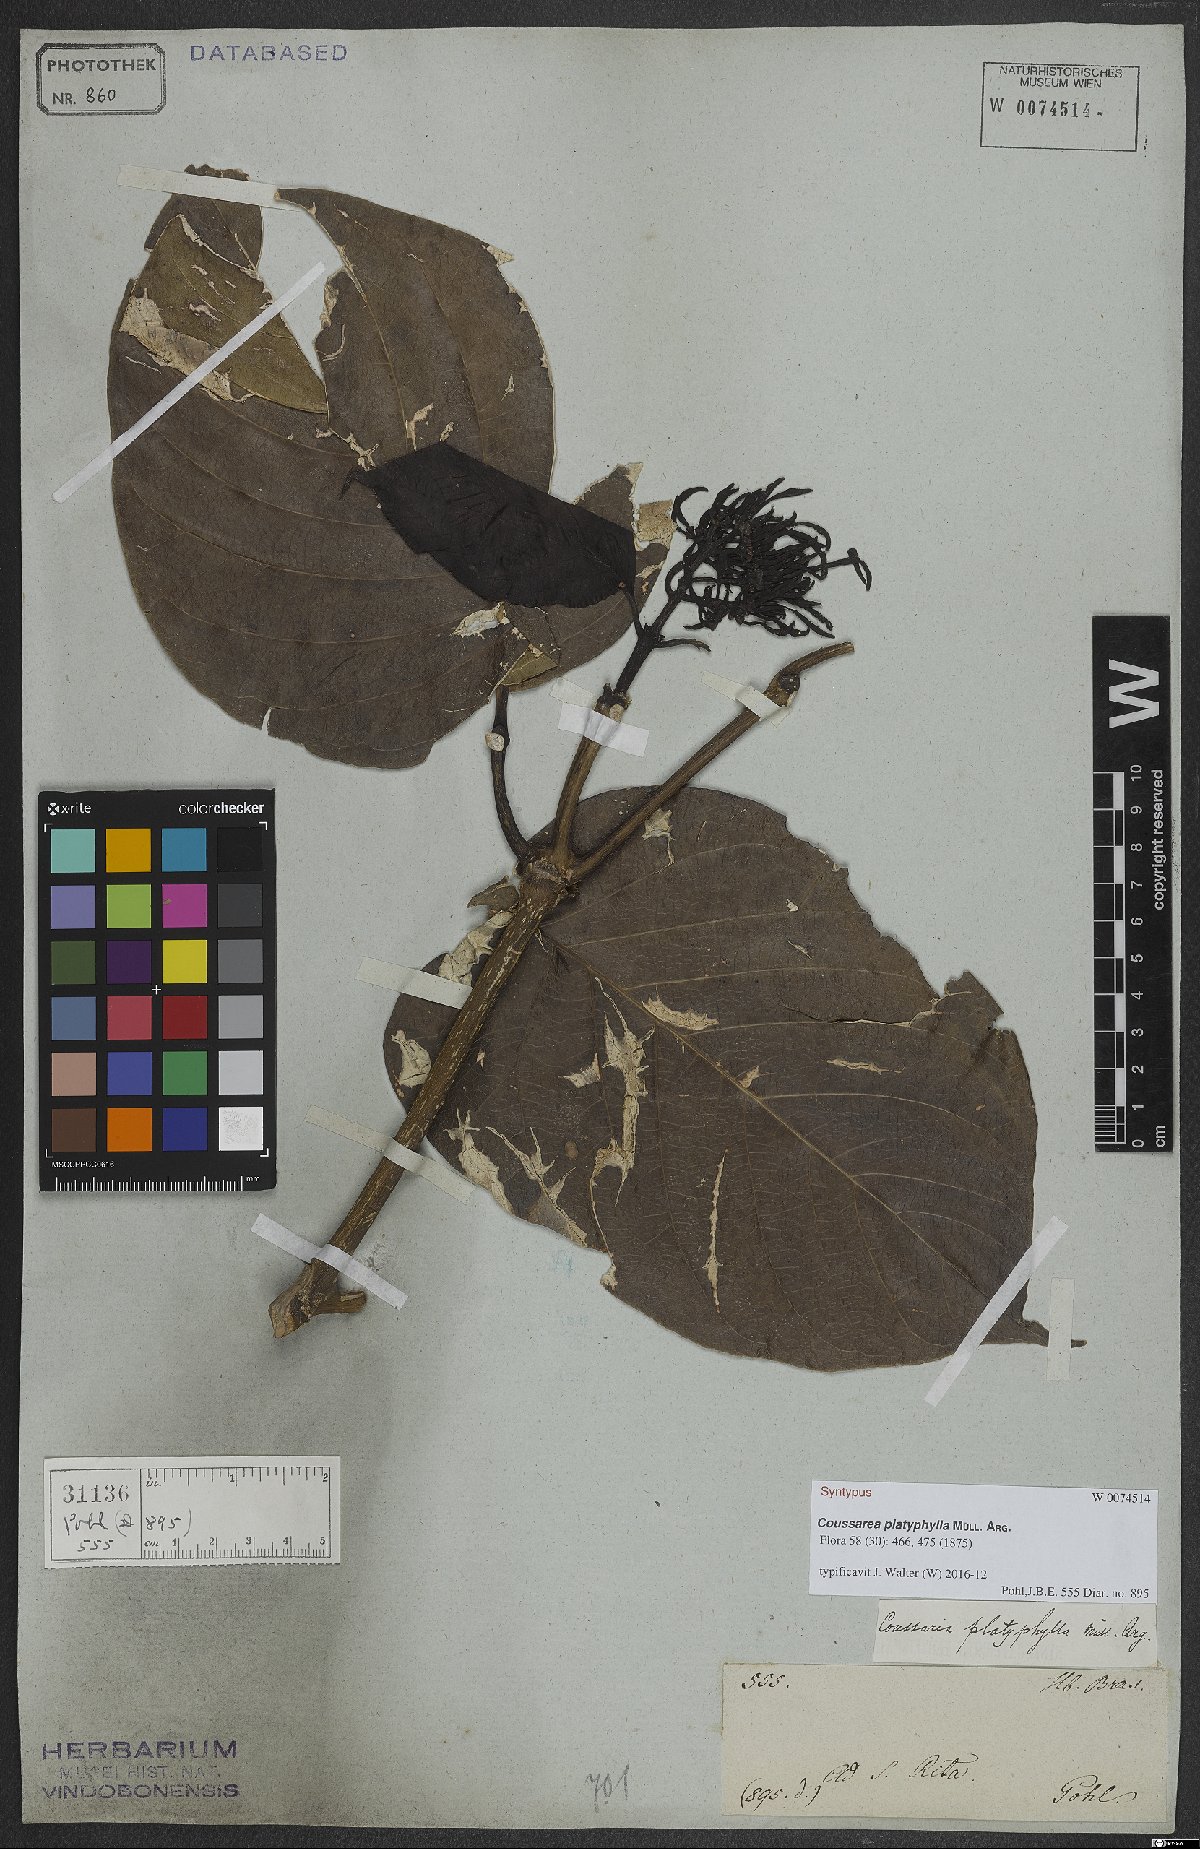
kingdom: Plantae
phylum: Tracheophyta
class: Magnoliopsida
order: Gentianales
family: Rubiaceae
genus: Coussarea
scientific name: Coussarea platyphylla
